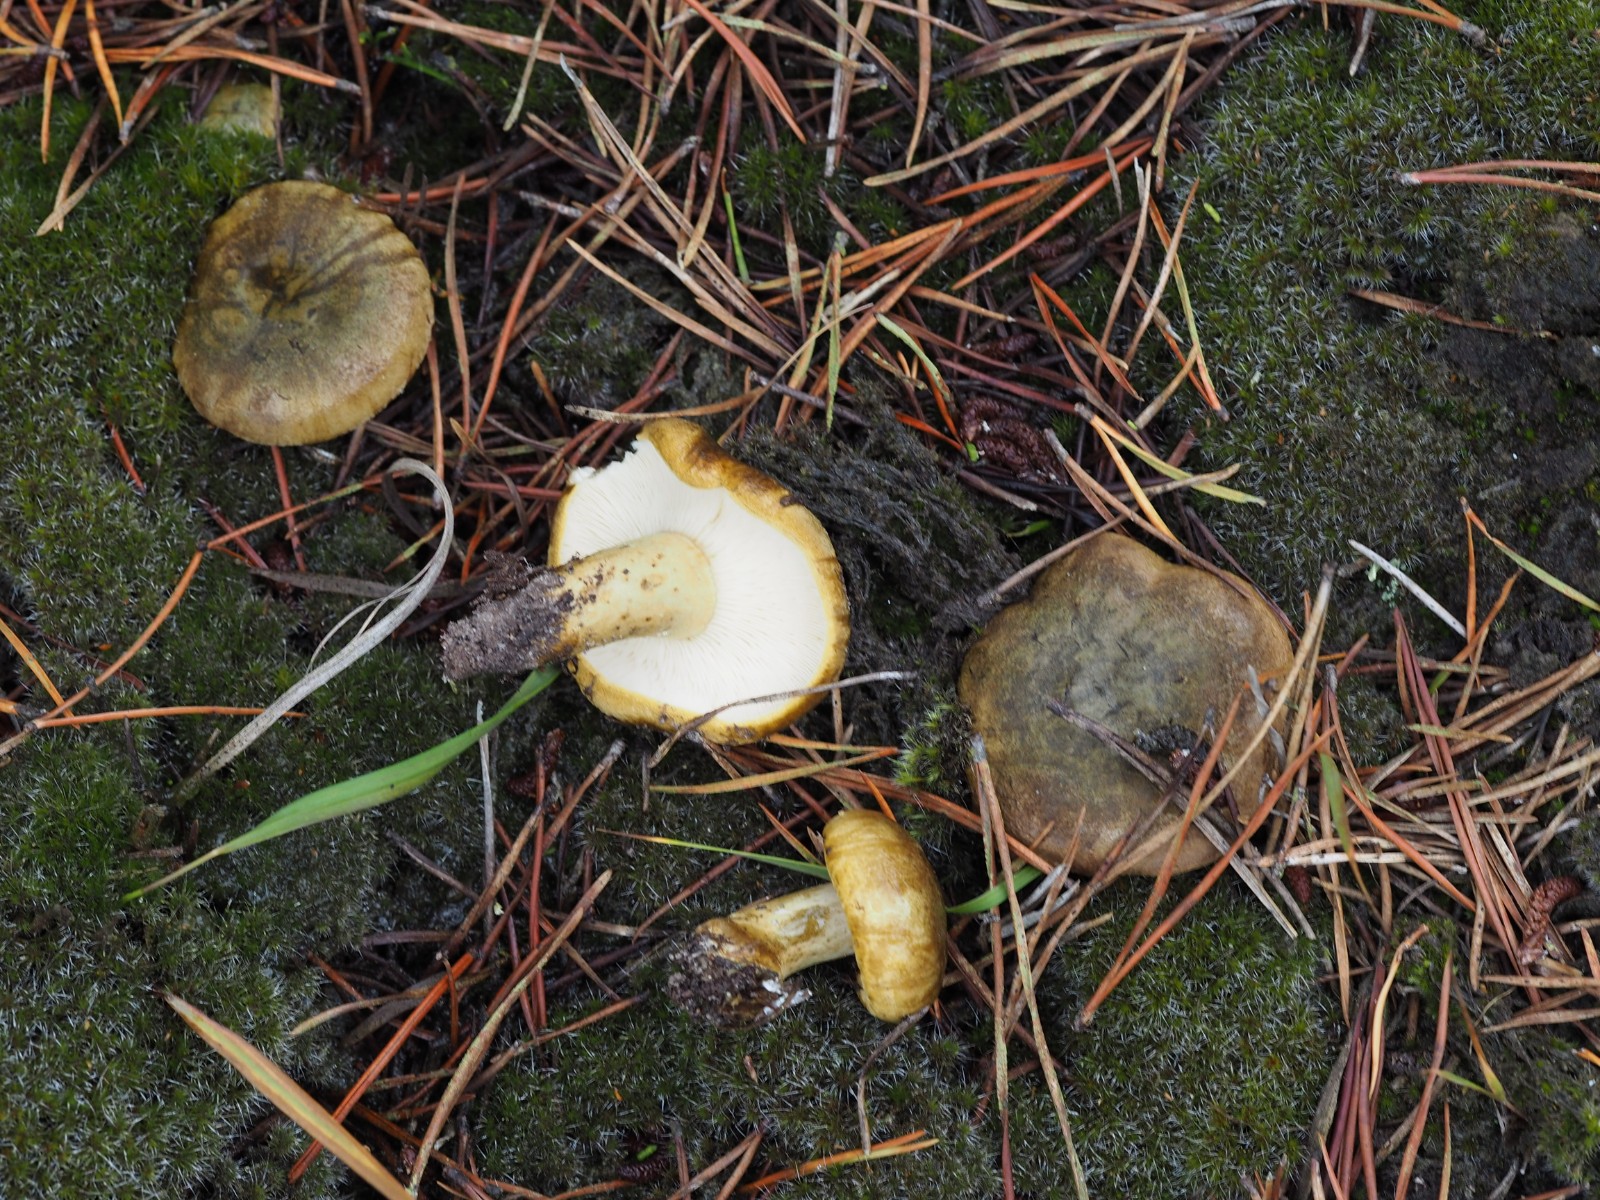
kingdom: Fungi
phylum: Basidiomycota
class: Agaricomycetes
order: Russulales
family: Russulaceae
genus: Lactarius
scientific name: Lactarius necator
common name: manddraber-mælkehat
